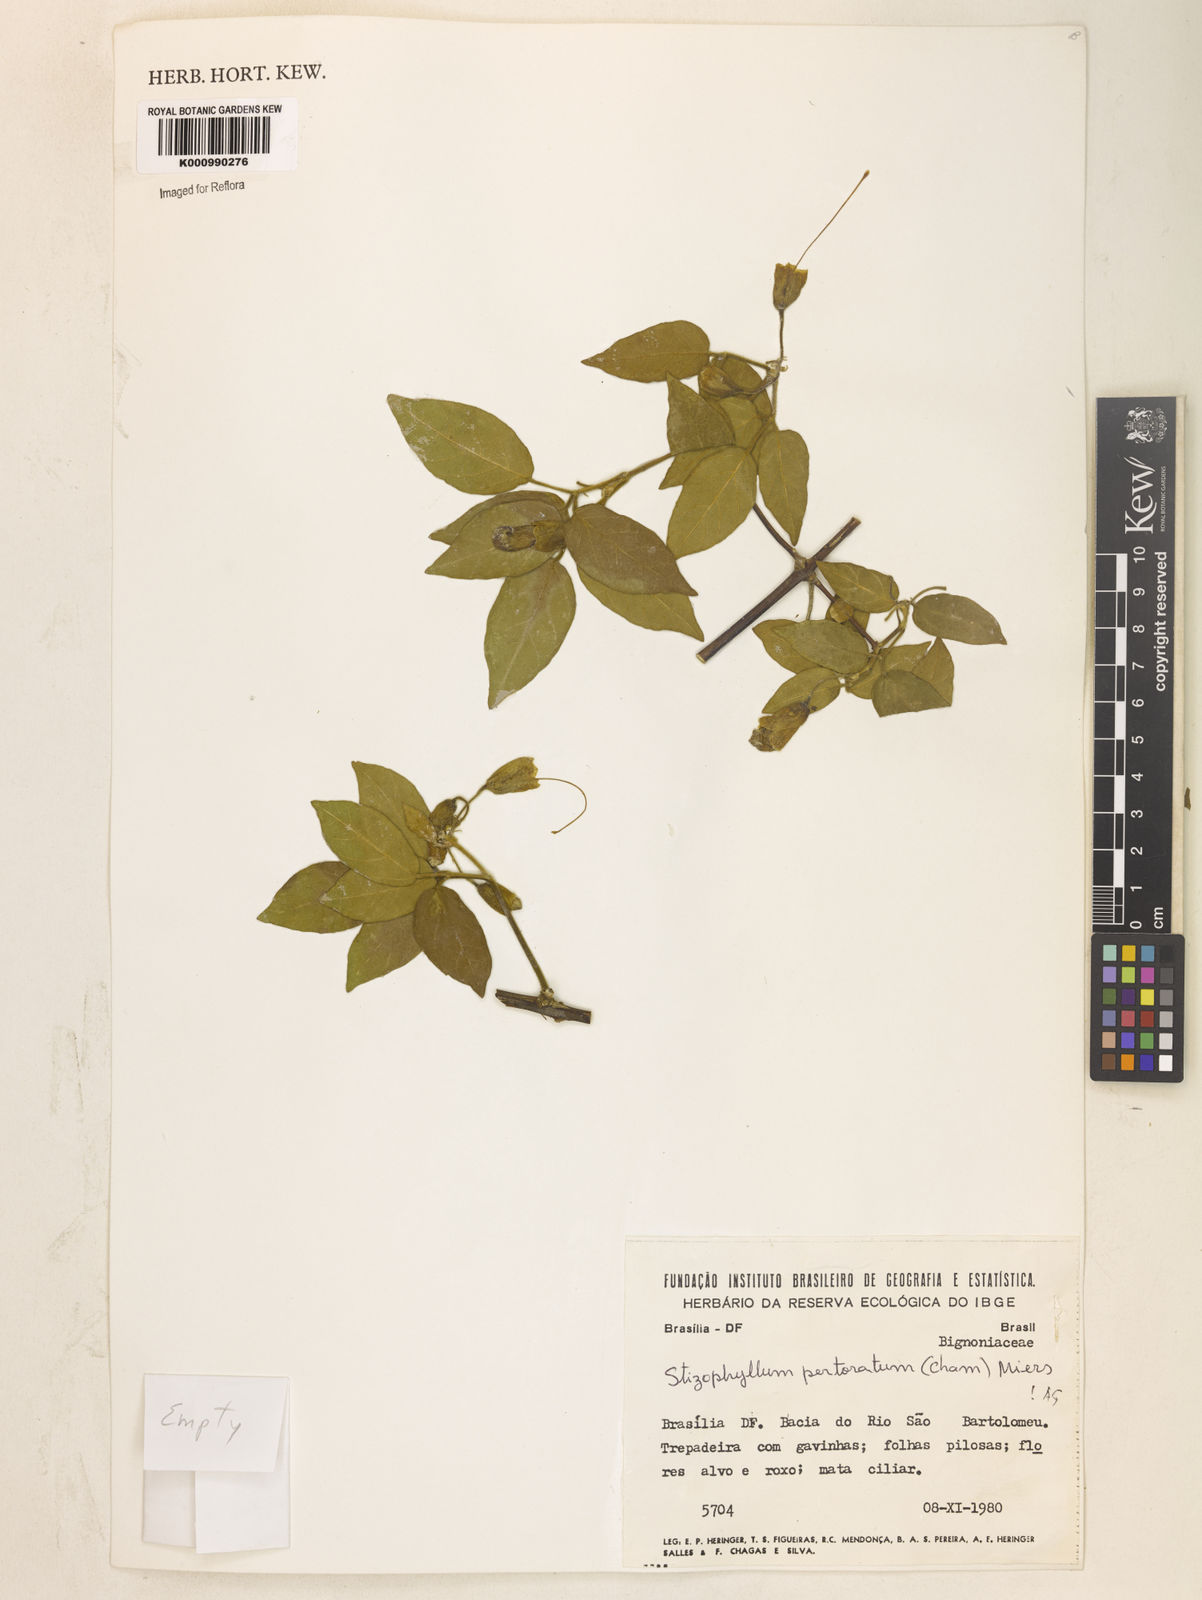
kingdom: Plantae
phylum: Tracheophyta
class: Magnoliopsida
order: Lamiales
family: Bignoniaceae
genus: Stizophyllum
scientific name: Stizophyllum perforatum
